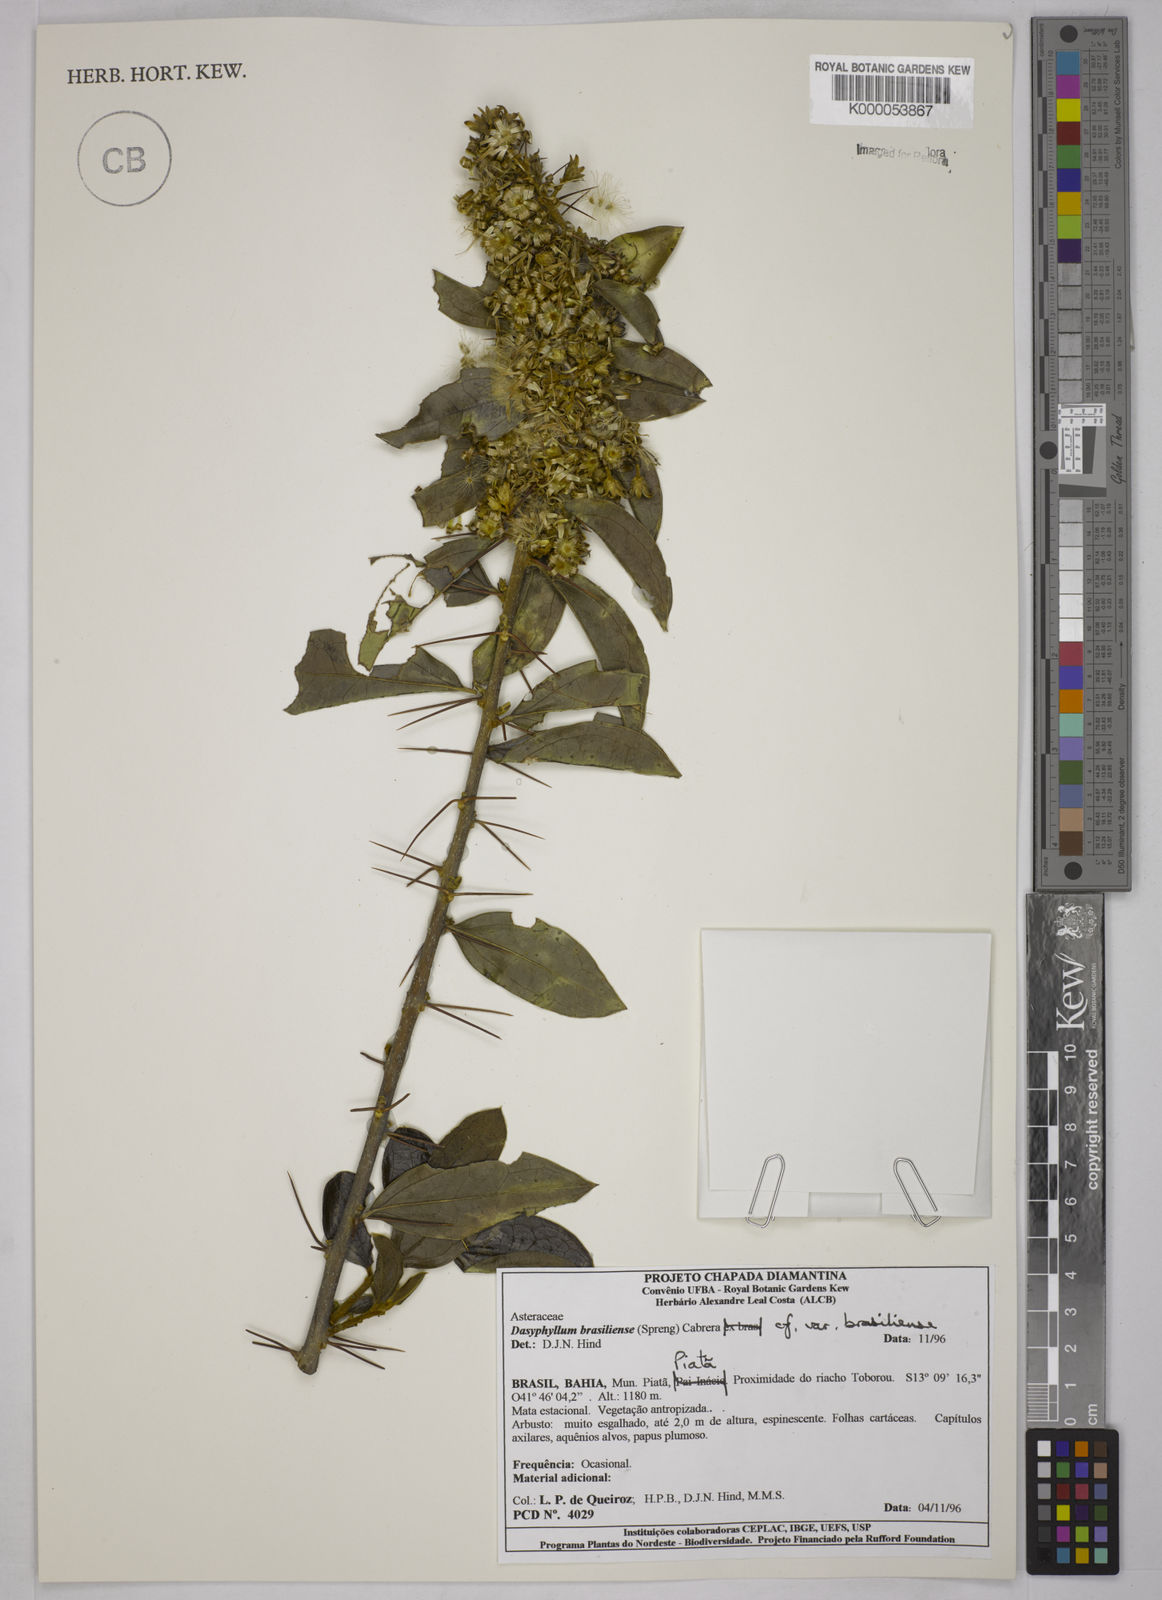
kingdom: Plantae
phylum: Tracheophyta
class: Magnoliopsida
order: Asterales
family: Asteraceae
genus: Dasyphyllum
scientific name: Dasyphyllum brasiliense
